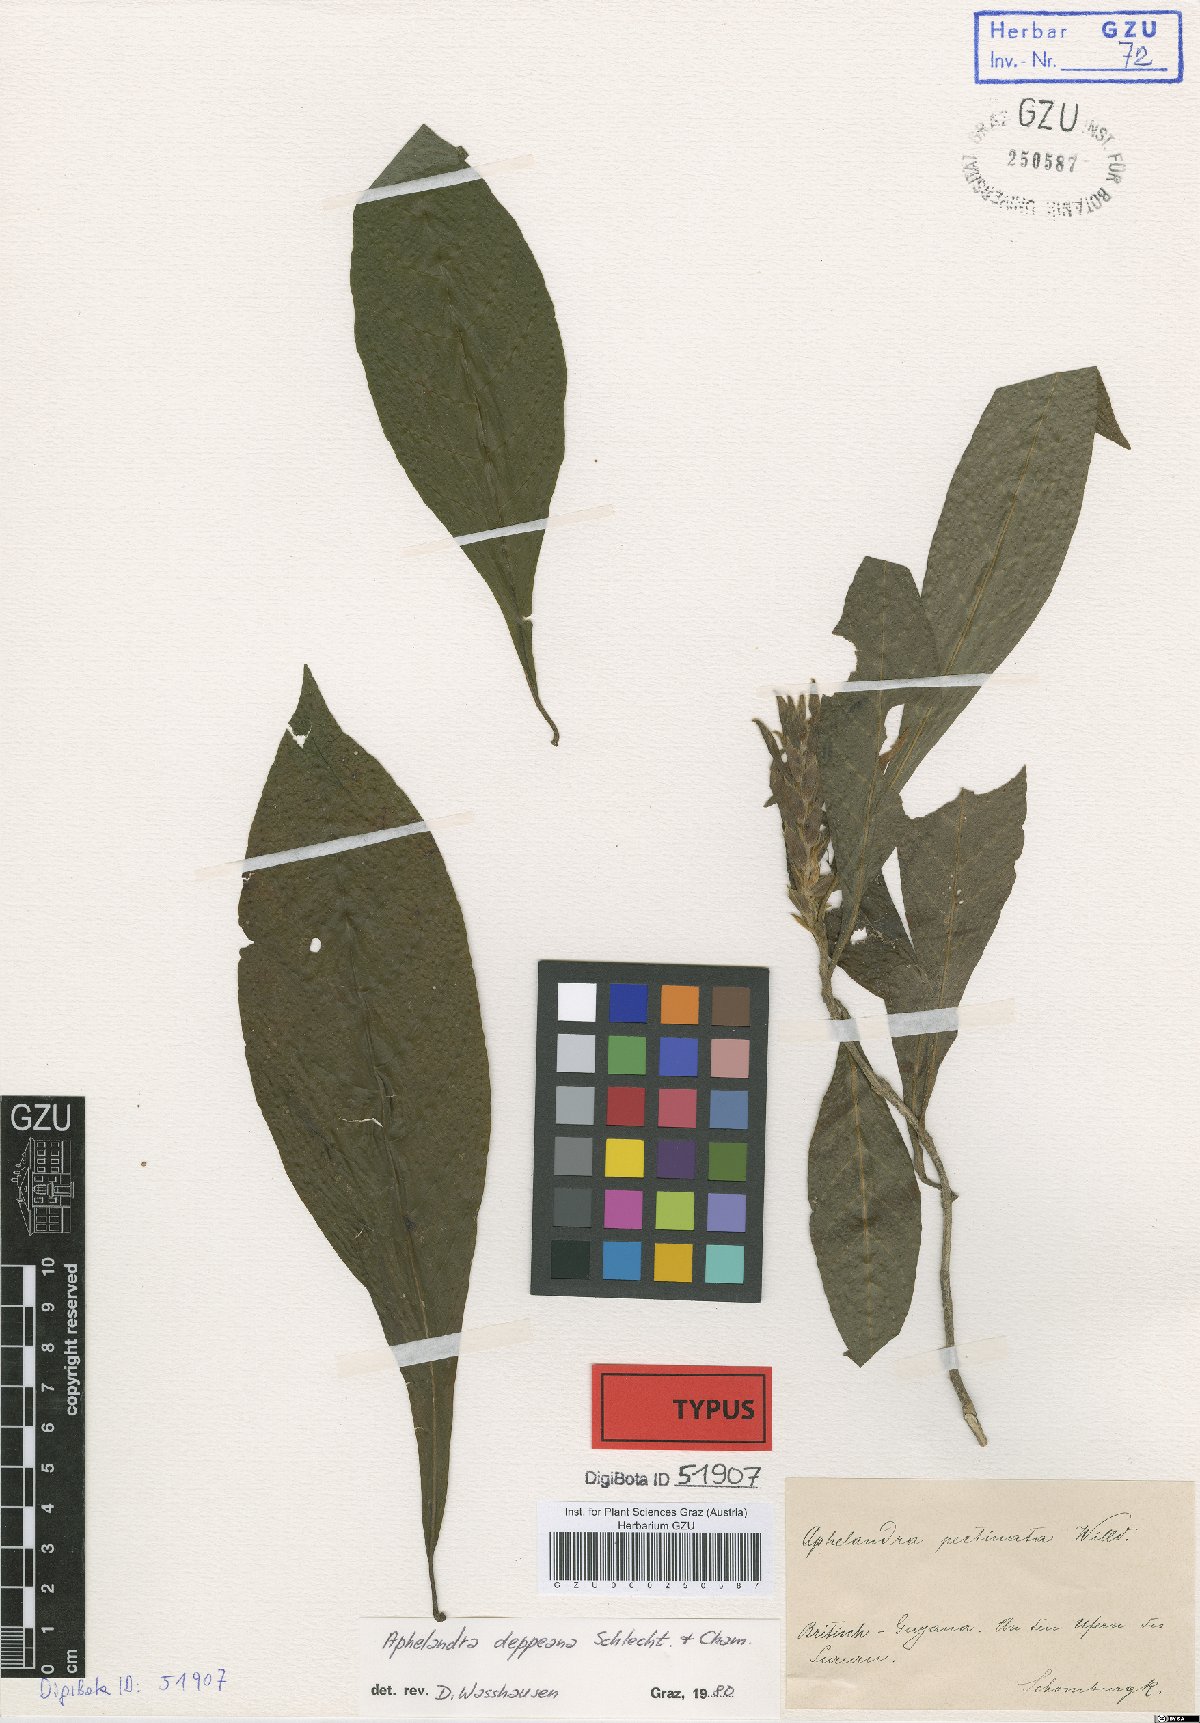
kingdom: Plantae
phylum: Tracheophyta
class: Magnoliopsida
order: Lamiales
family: Acanthaceae
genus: Aphelandra
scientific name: Aphelandra scabra
